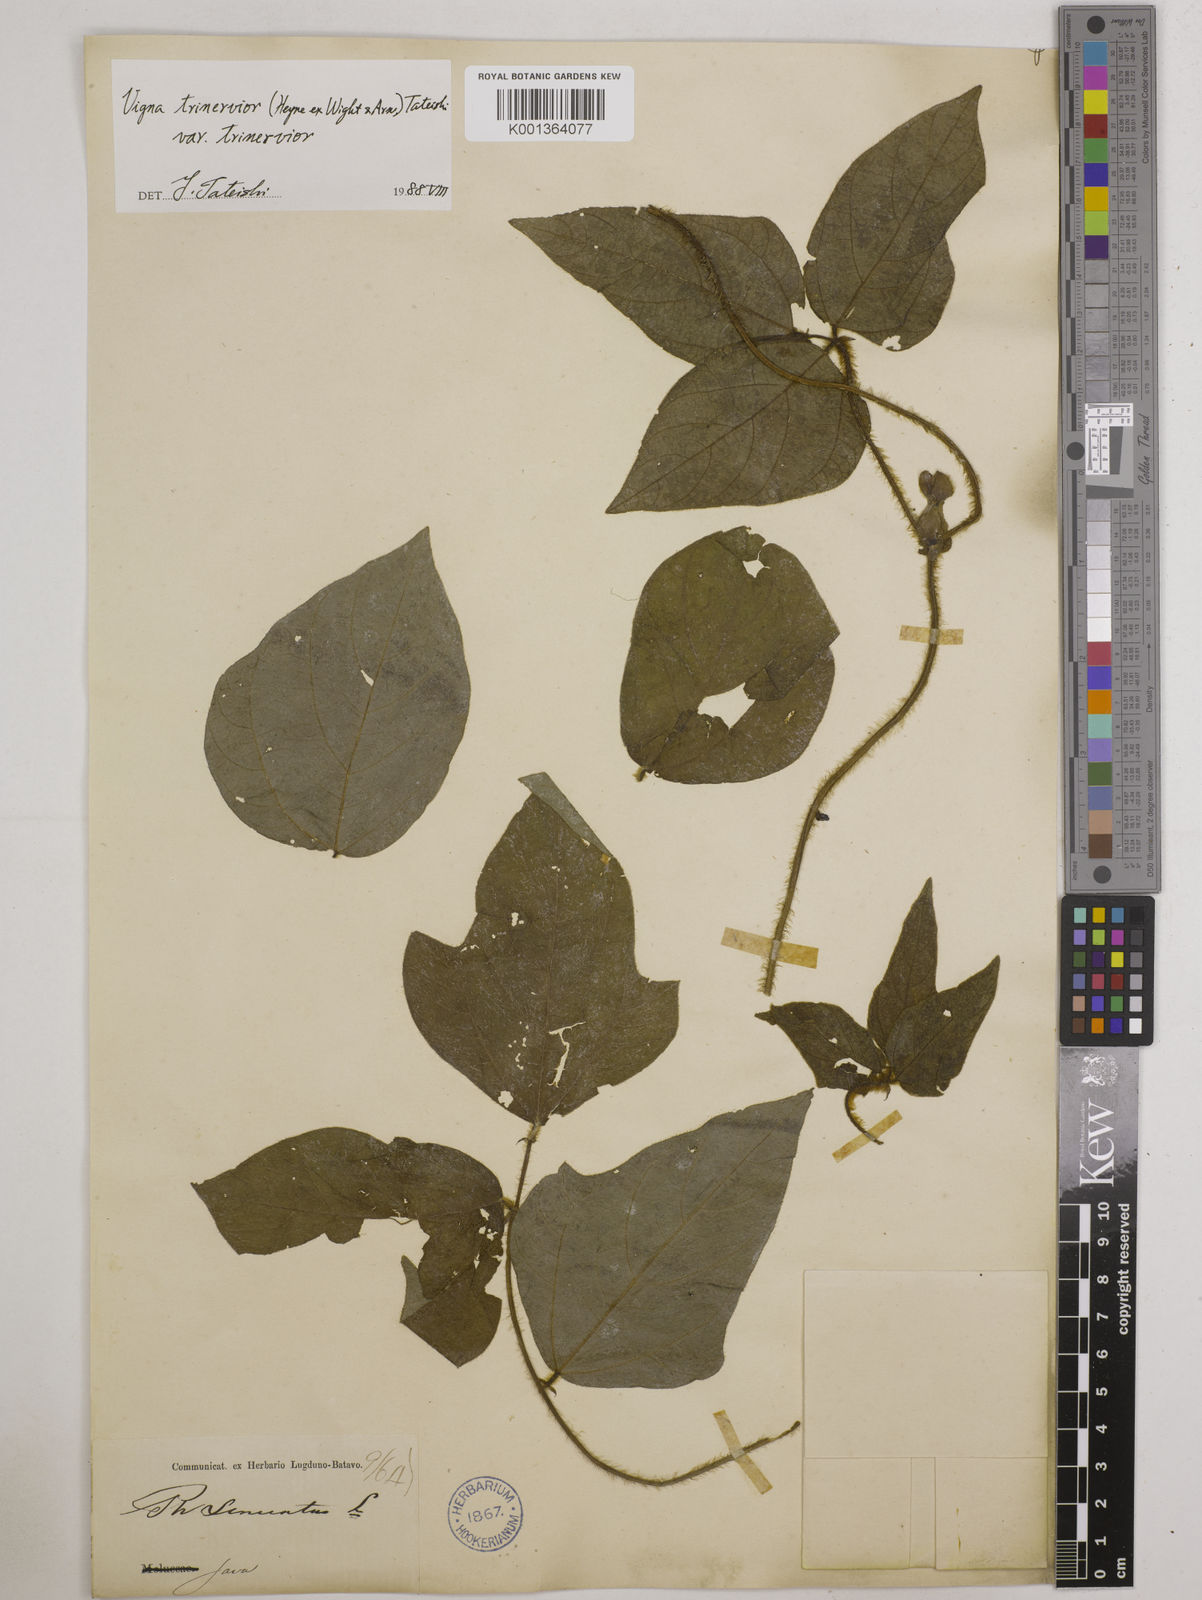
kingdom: Plantae
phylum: Tracheophyta
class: Magnoliopsida
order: Fabales
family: Fabaceae
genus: Vigna
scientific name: Vigna radiata
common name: Mung-bean
